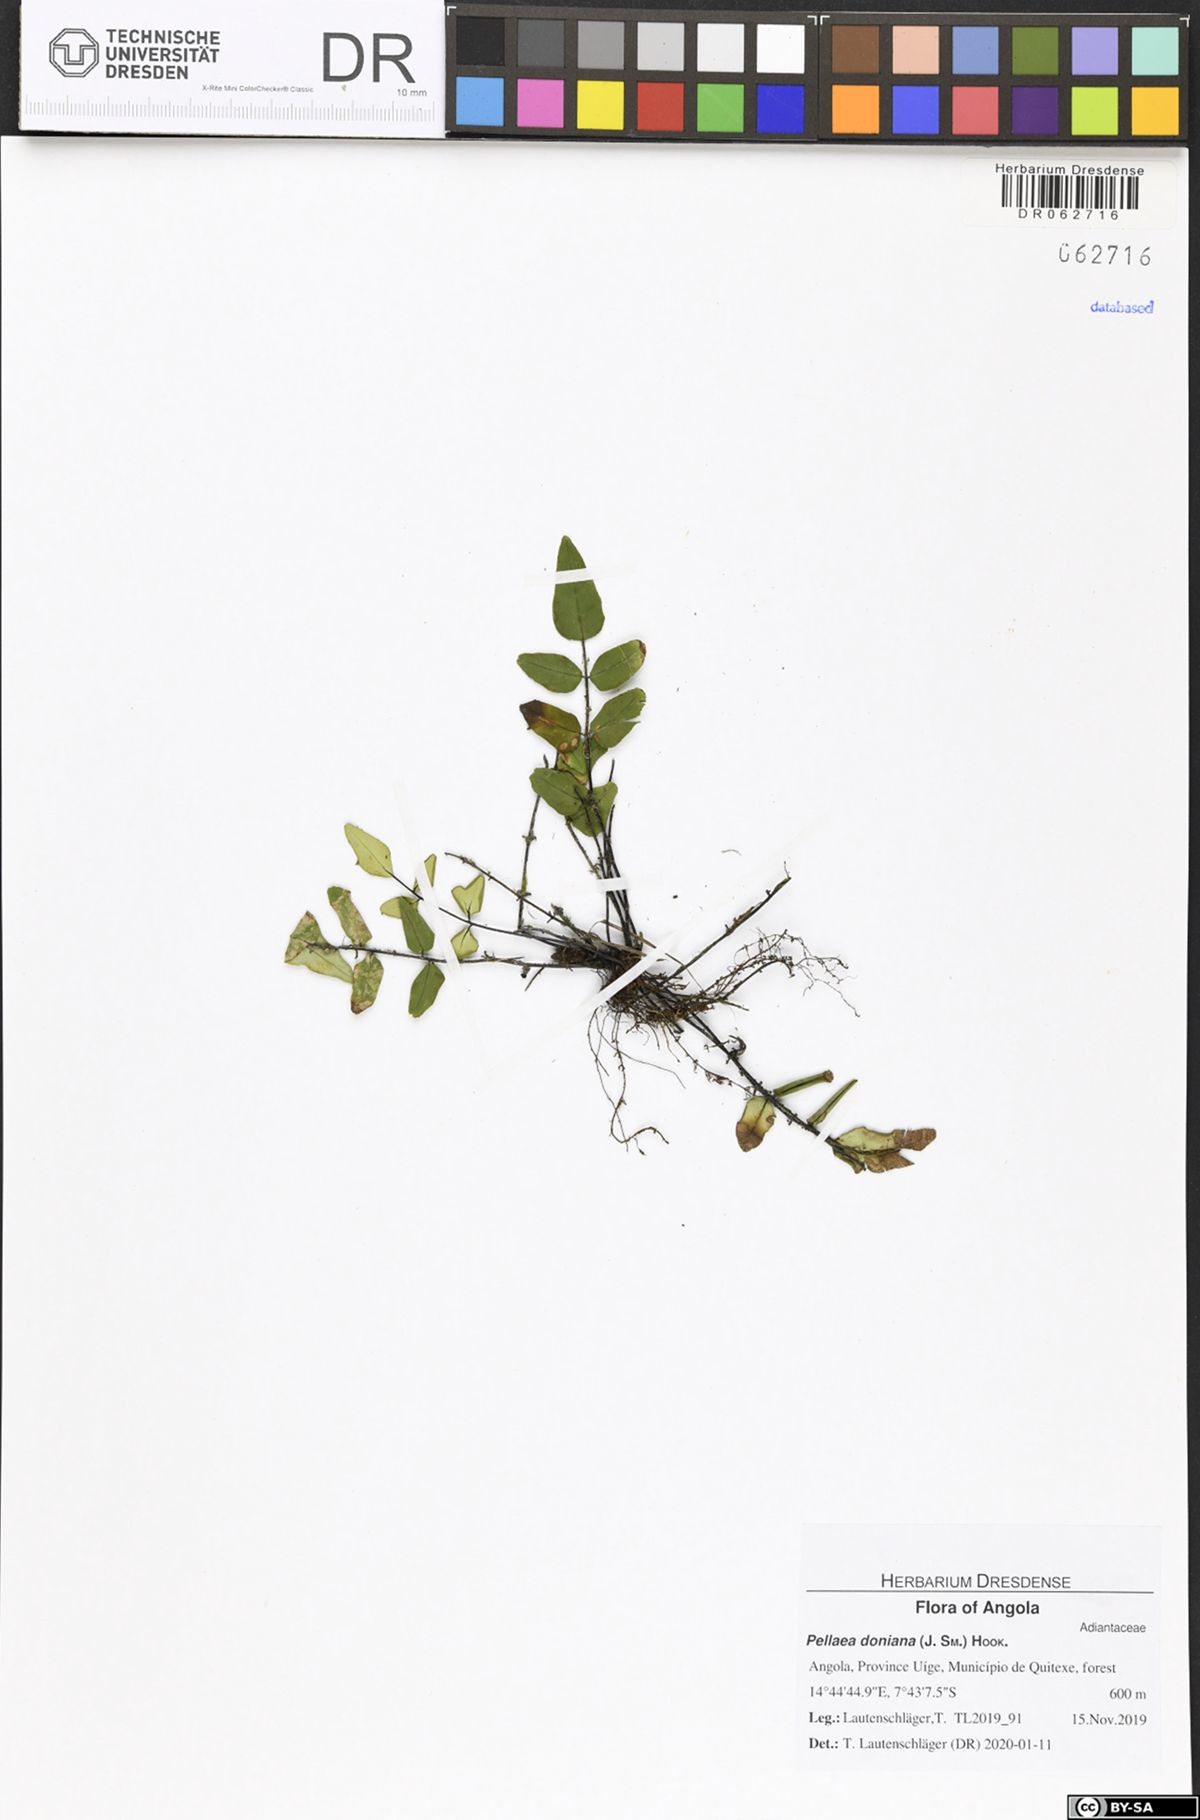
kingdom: Plantae
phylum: Tracheophyta
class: Polypodiopsida
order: Polypodiales
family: Pteridaceae
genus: Pellaea
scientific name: Pellaea doniana
